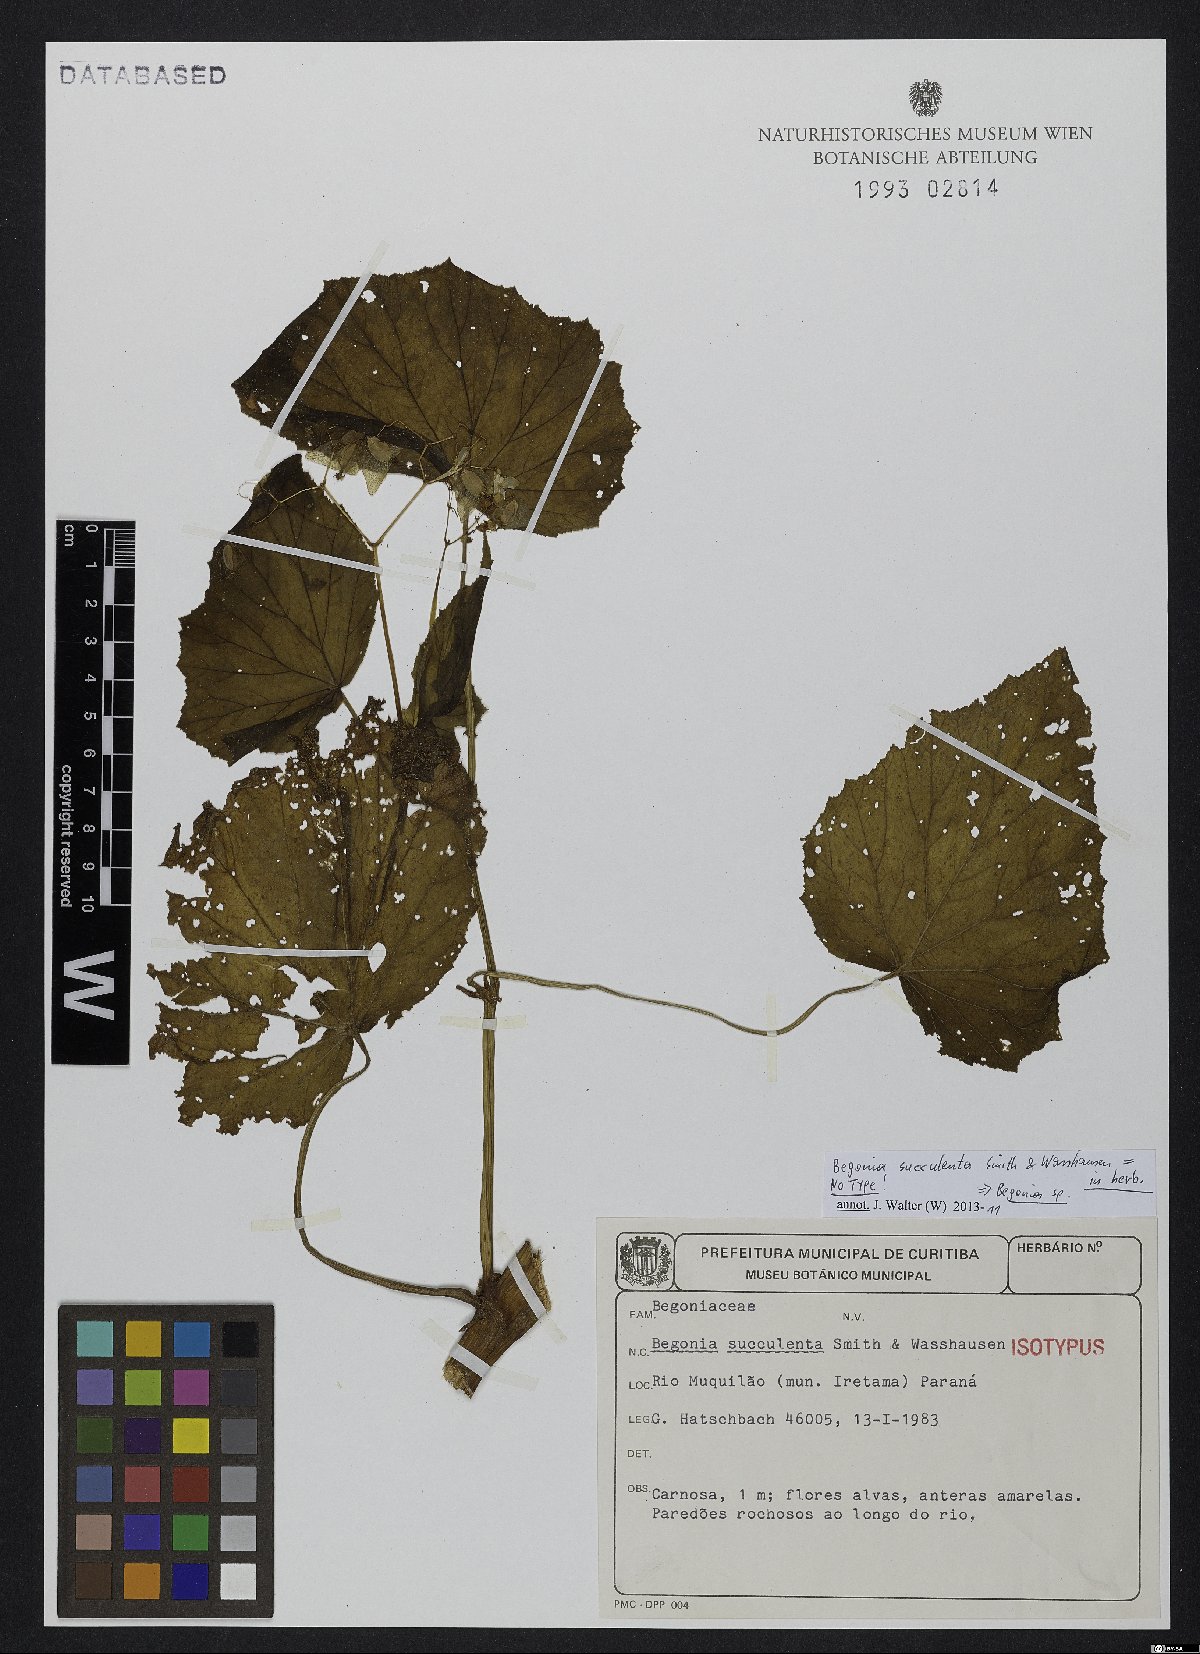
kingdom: Plantae
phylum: Tracheophyta
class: Magnoliopsida
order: Cucurbitales
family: Begoniaceae
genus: Begonia
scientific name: Begonia
